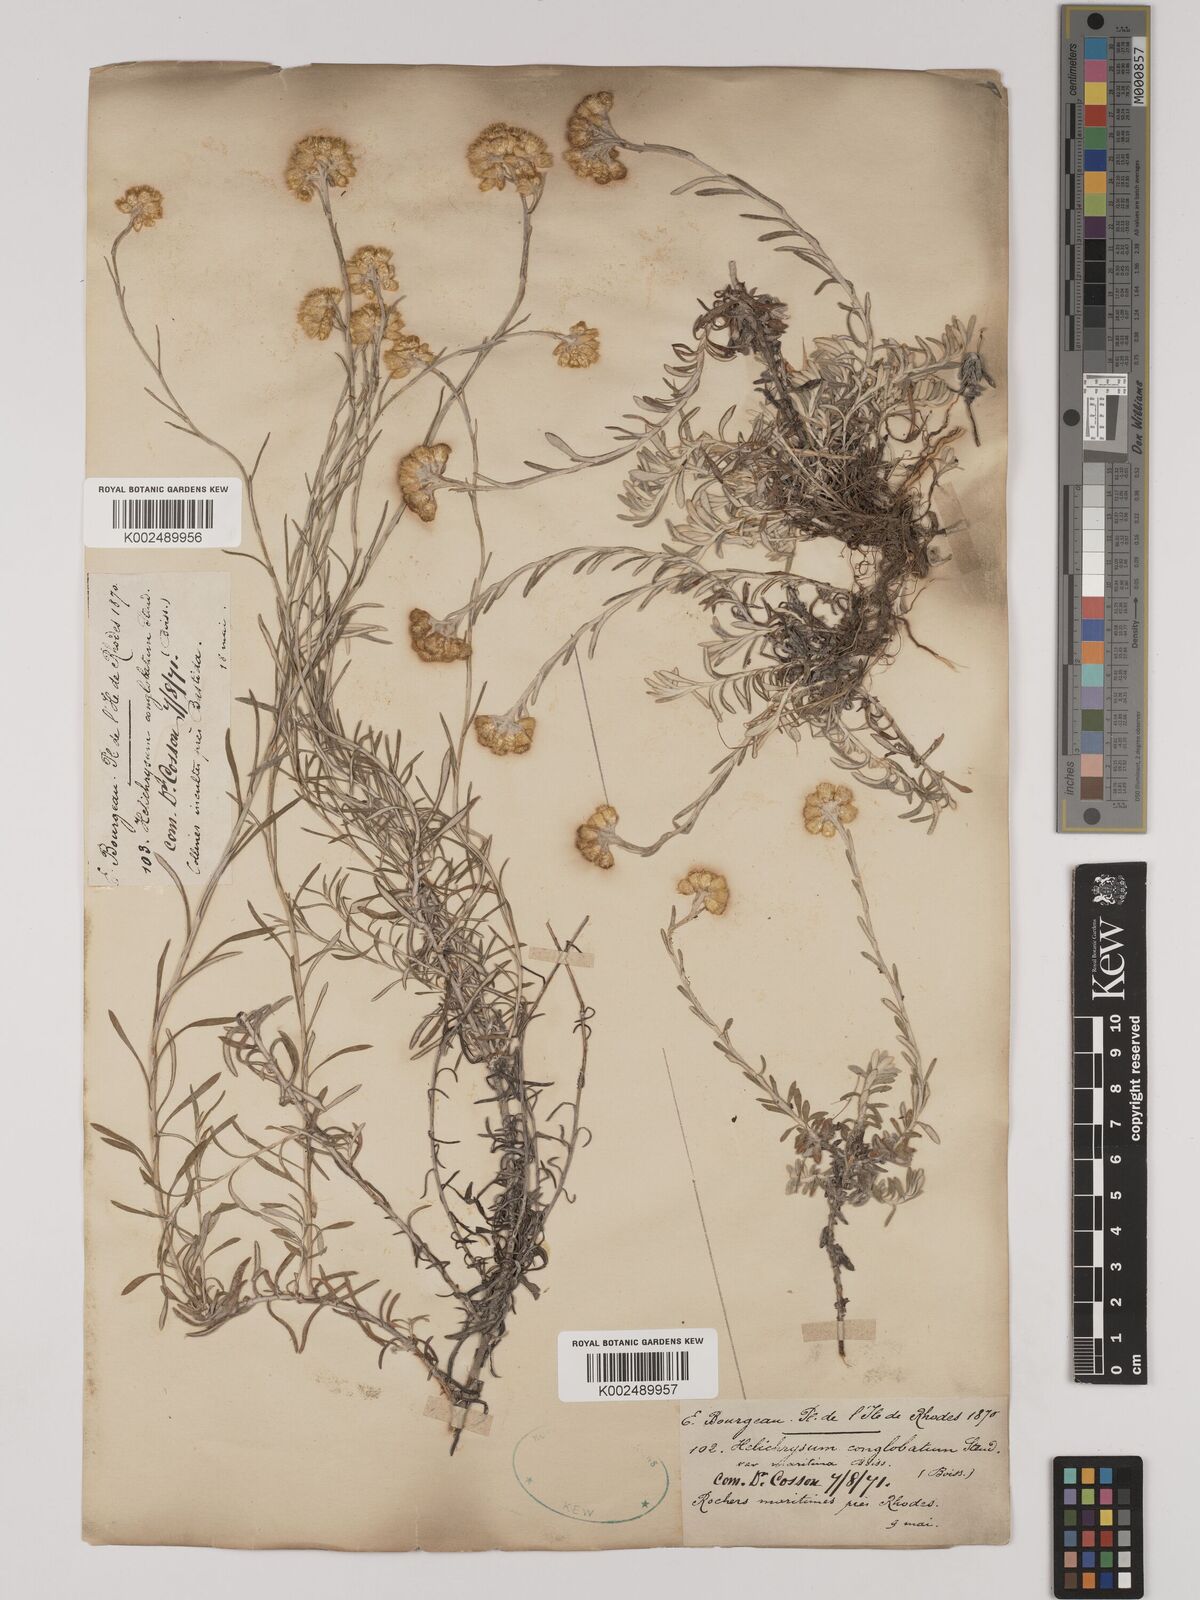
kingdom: Plantae
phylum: Tracheophyta
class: Magnoliopsida
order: Asterales
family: Asteraceae
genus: Helichrysum
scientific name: Helichrysum italicum
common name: Curryplant
